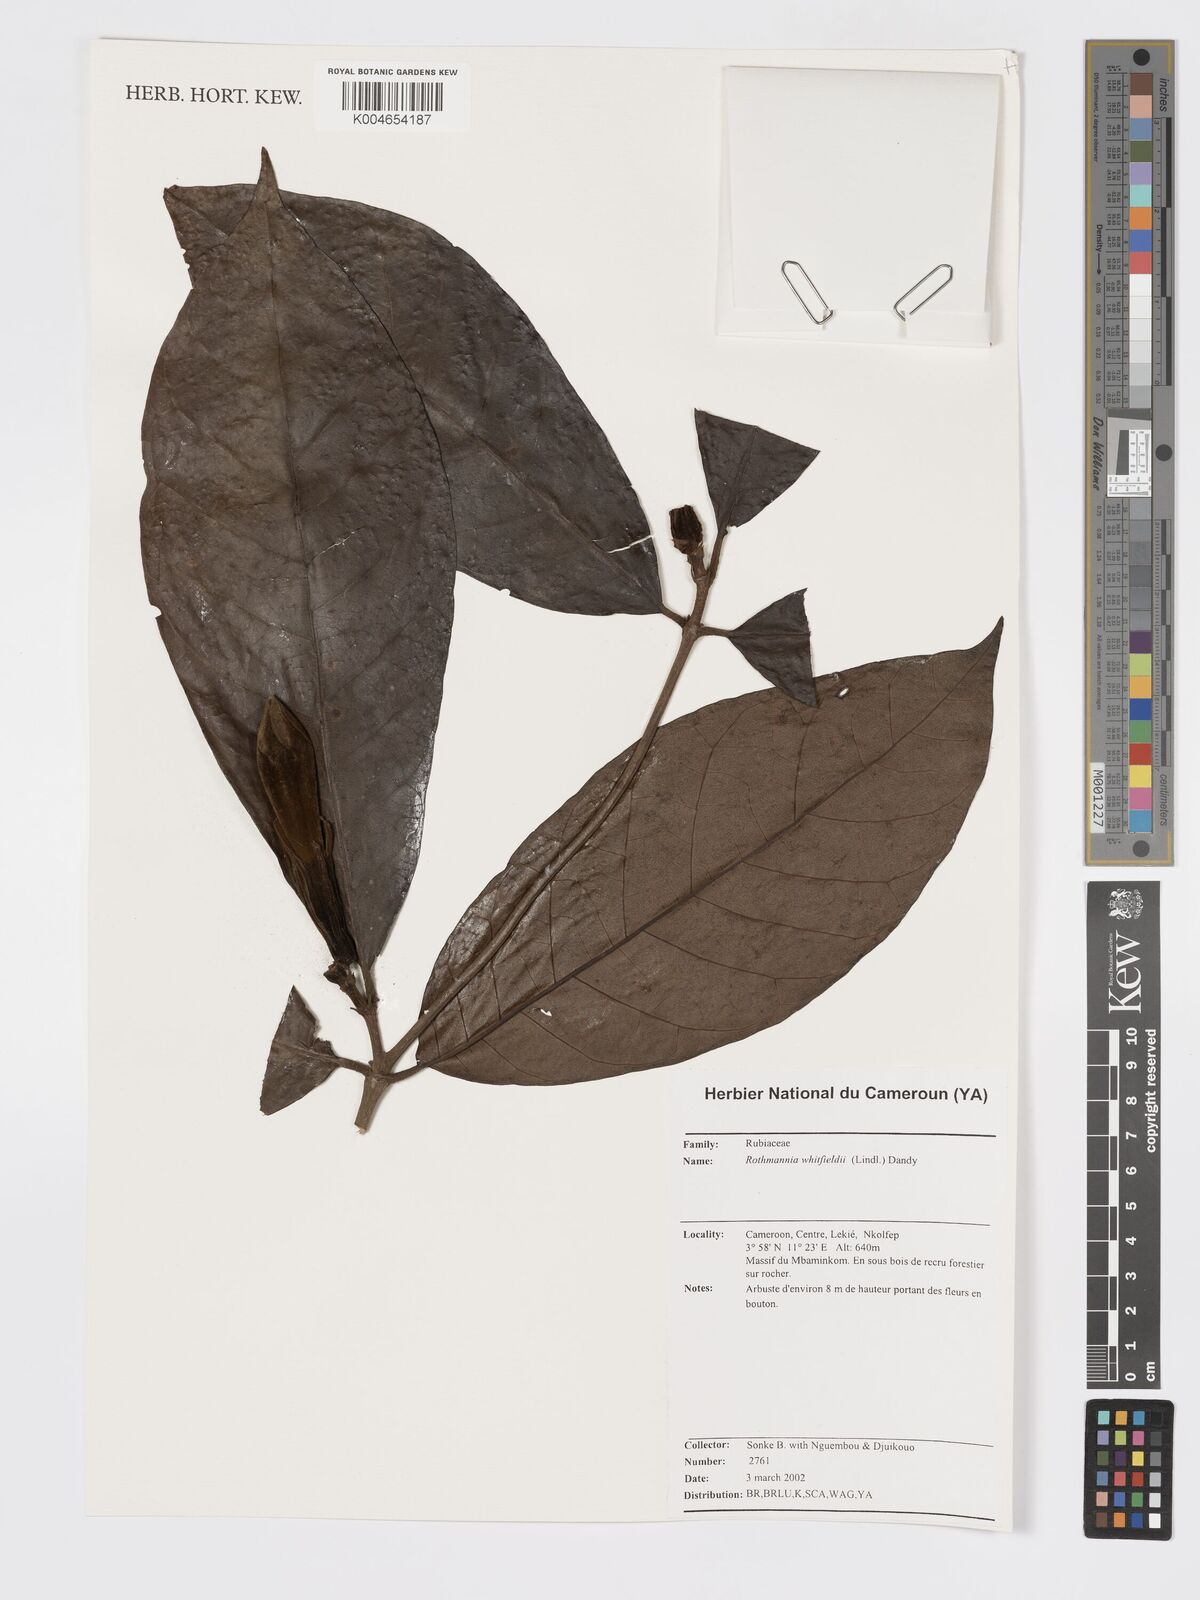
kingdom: Plantae
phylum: Tracheophyta
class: Magnoliopsida
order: Gentianales
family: Rubiaceae
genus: Rothmannia
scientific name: Rothmannia whitfieldii
